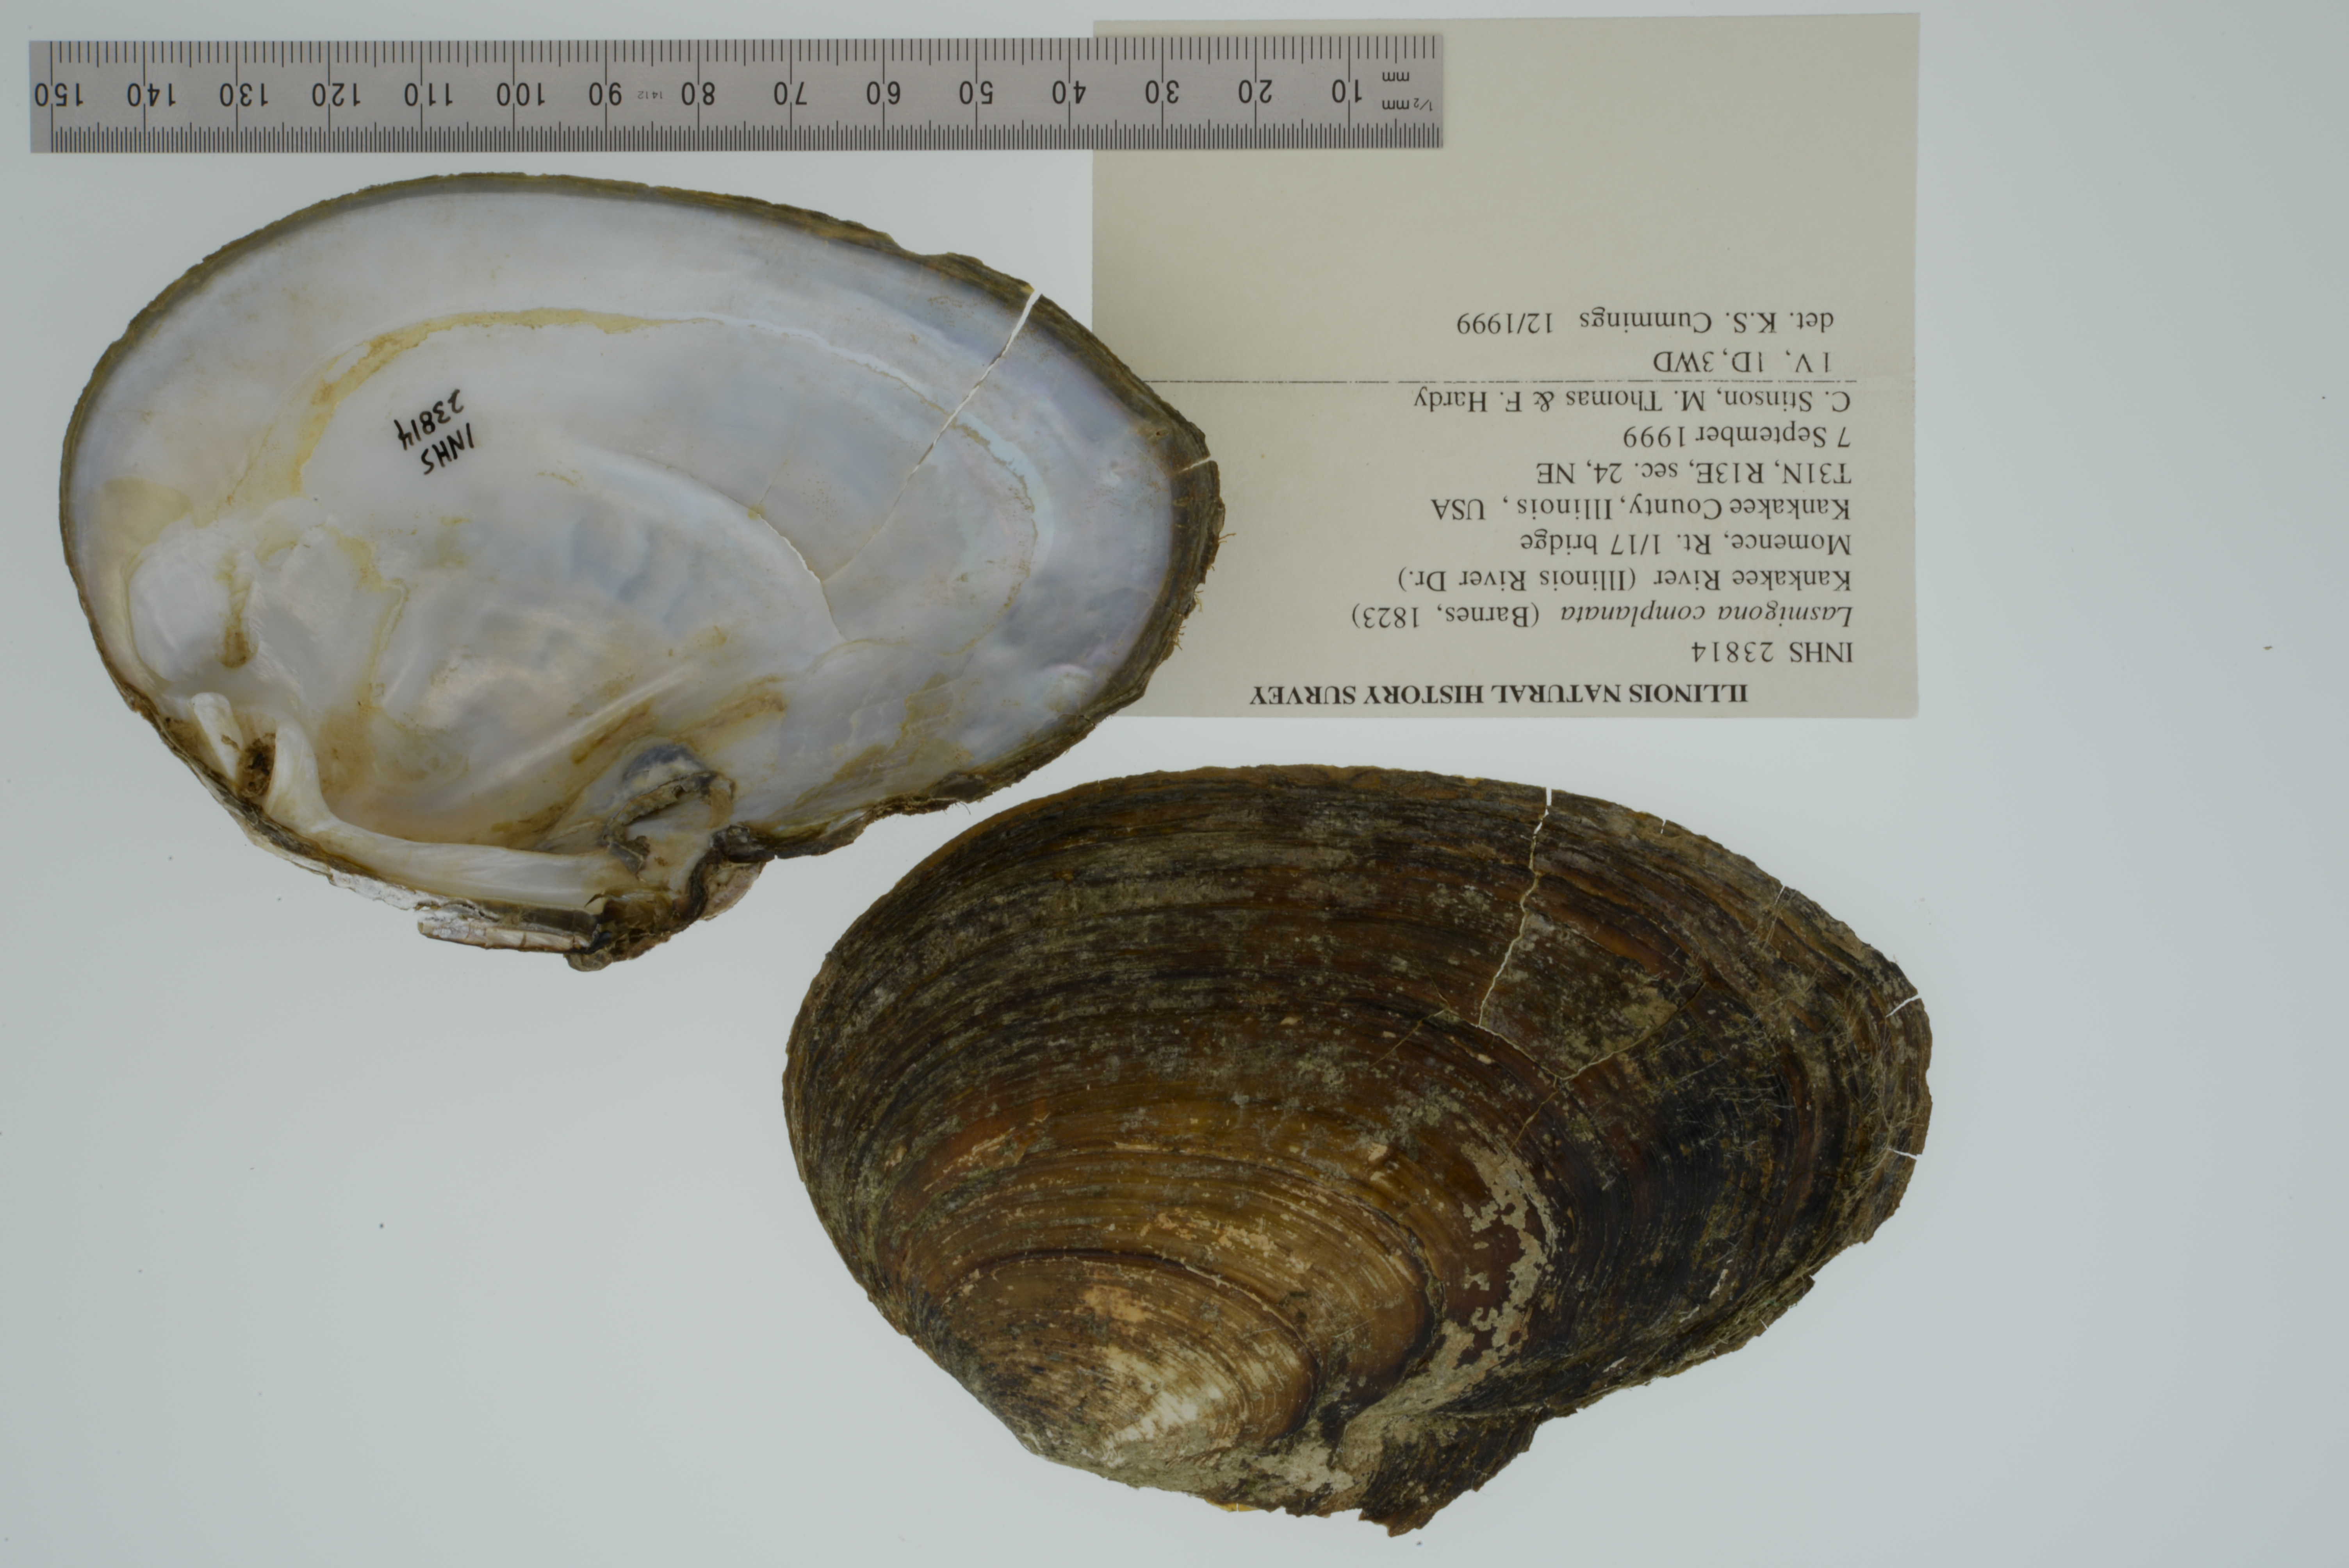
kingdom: Animalia
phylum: Mollusca
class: Bivalvia
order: Unionida
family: Unionidae
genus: Lasmigona
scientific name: Lasmigona complanata
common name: White heelsplitter
